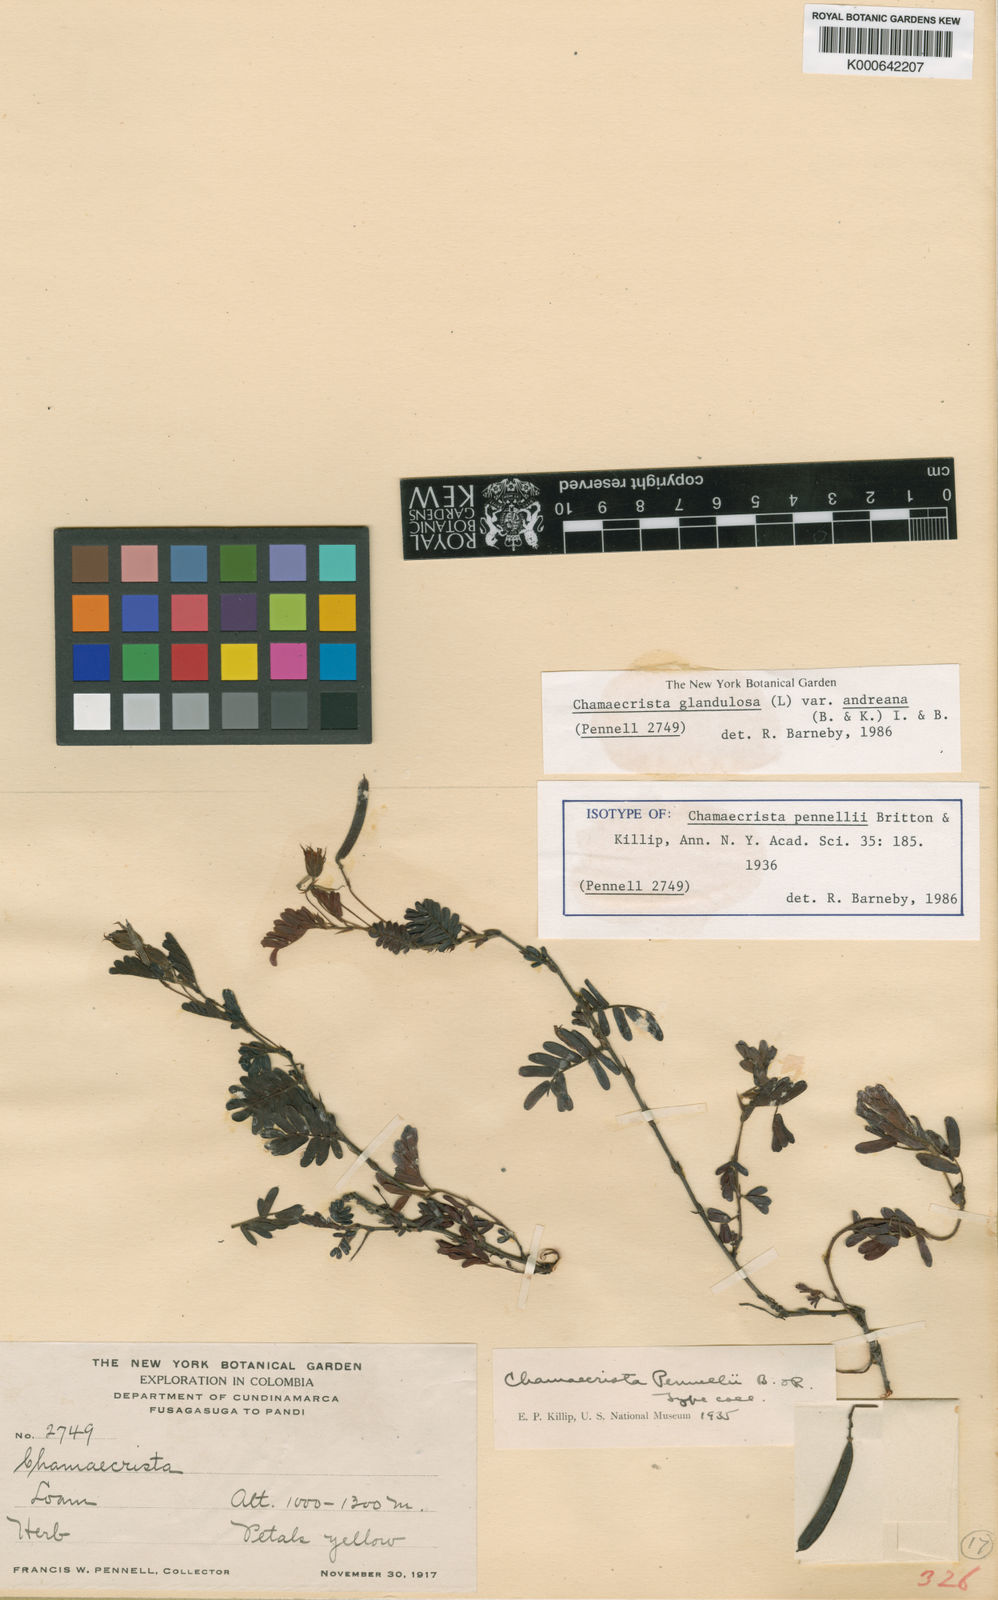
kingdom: Plantae
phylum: Tracheophyta
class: Magnoliopsida
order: Fabales
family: Fabaceae
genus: Chamaecrista
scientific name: Chamaecrista glandulosa
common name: Wild peas
